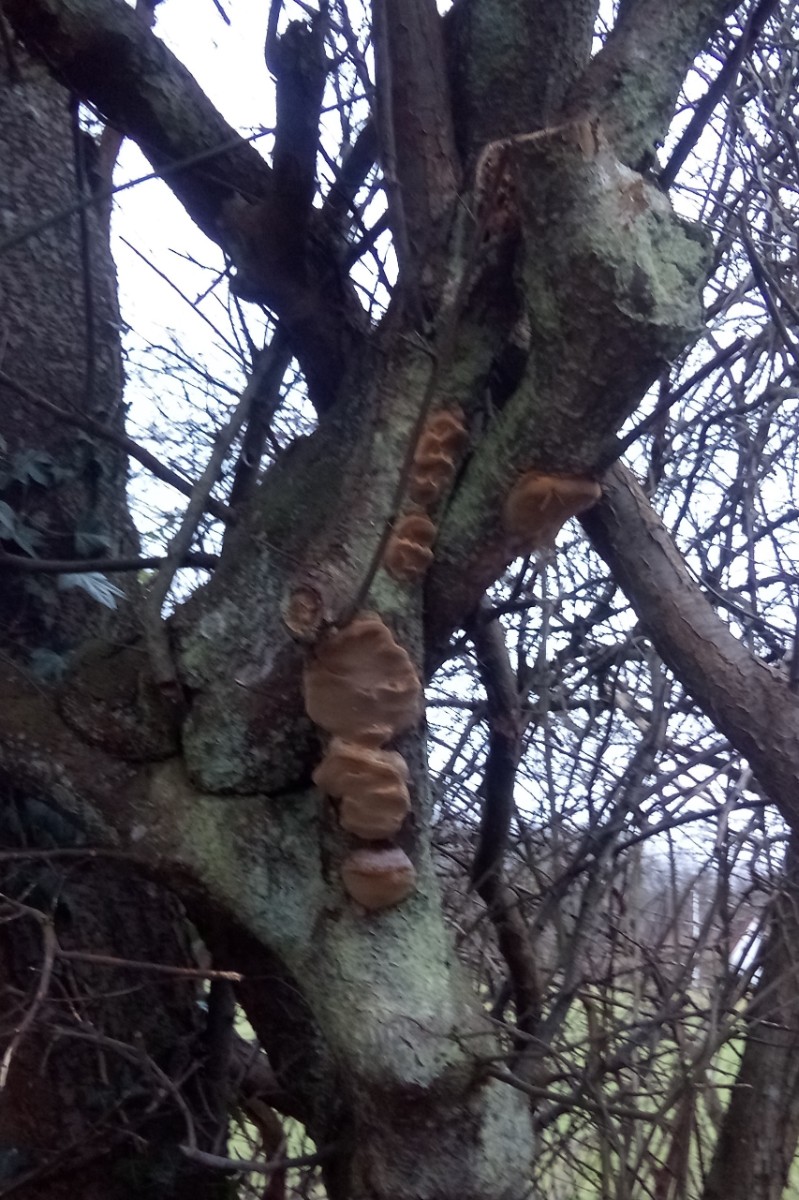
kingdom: Fungi
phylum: Basidiomycota
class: Agaricomycetes
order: Hymenochaetales
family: Hymenochaetaceae
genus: Phellinus
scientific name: Phellinus pomaceus
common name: blomme-ildporesvamp
